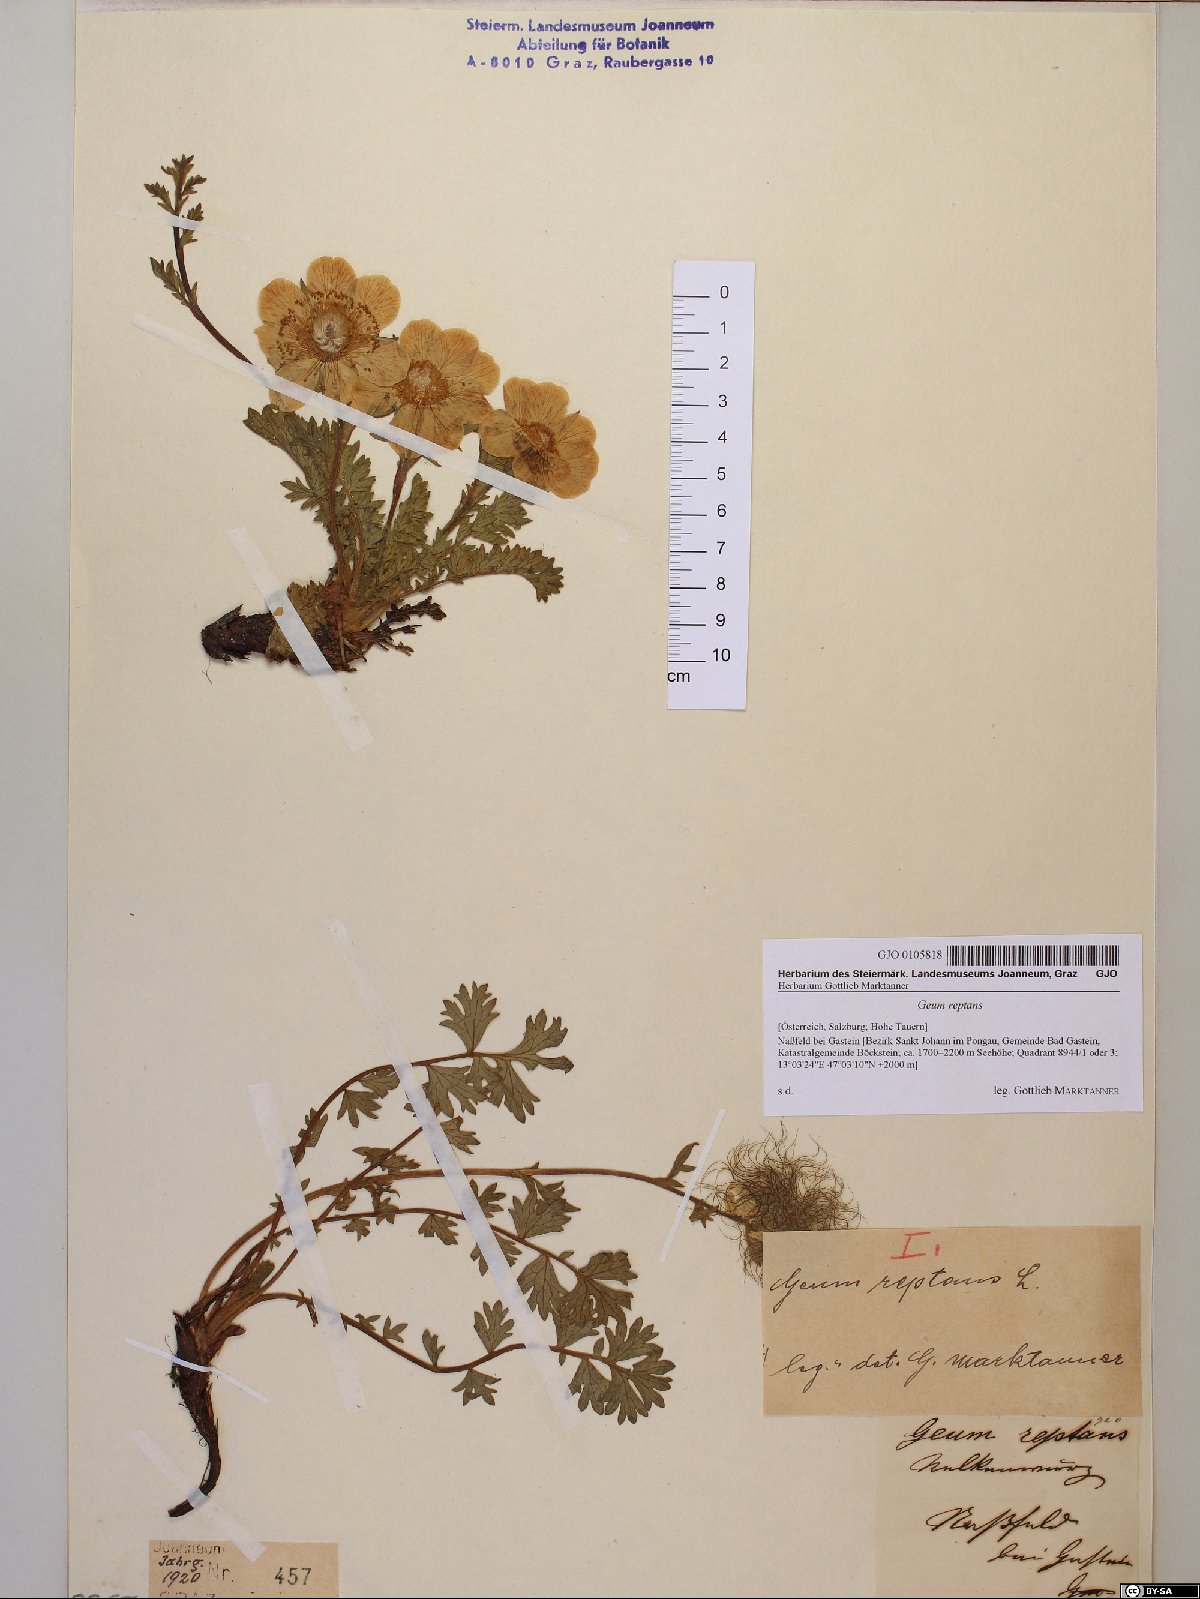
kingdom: Plantae
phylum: Tracheophyta
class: Magnoliopsida
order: Rosales
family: Rosaceae
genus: Geum
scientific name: Geum reptans
